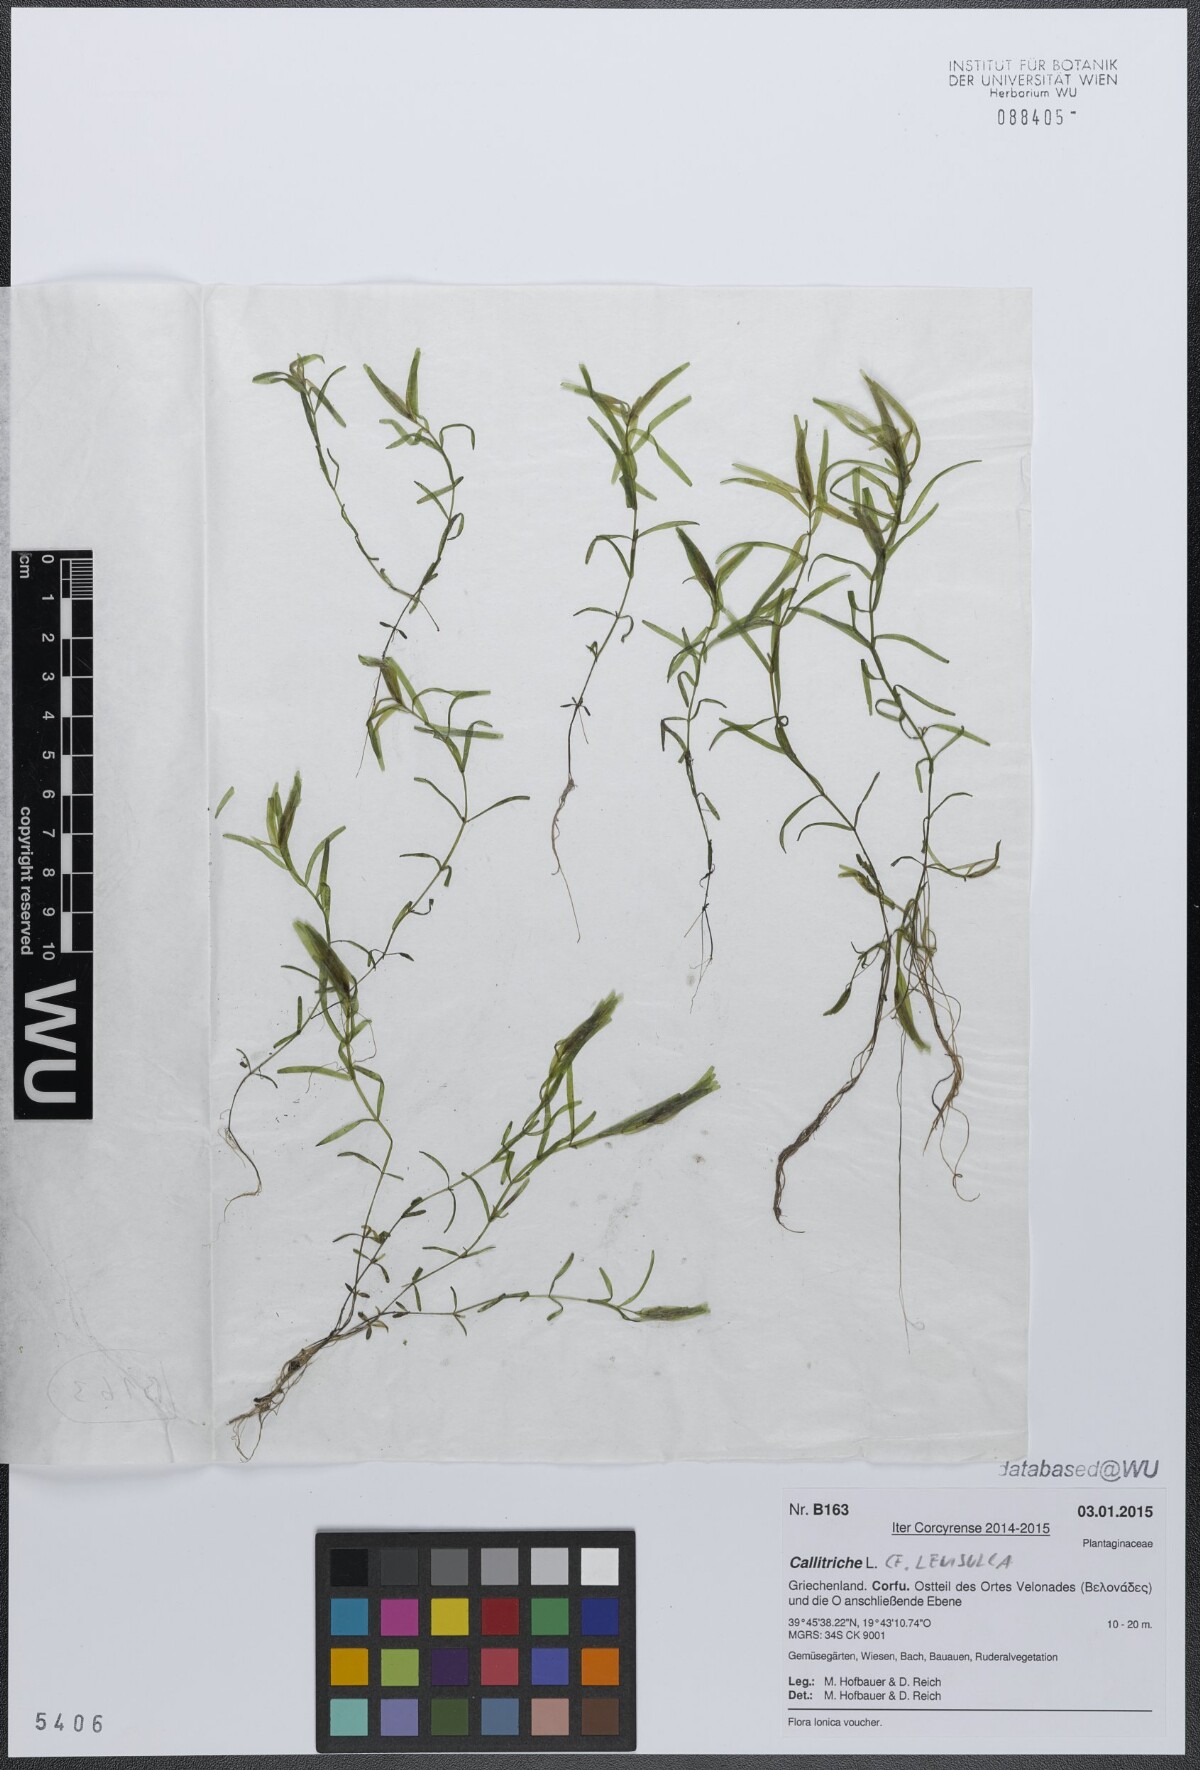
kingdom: Plantae
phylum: Tracheophyta
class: Magnoliopsida
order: Lamiales
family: Plantaginaceae
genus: Callitriche
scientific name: Callitriche lenisulca
